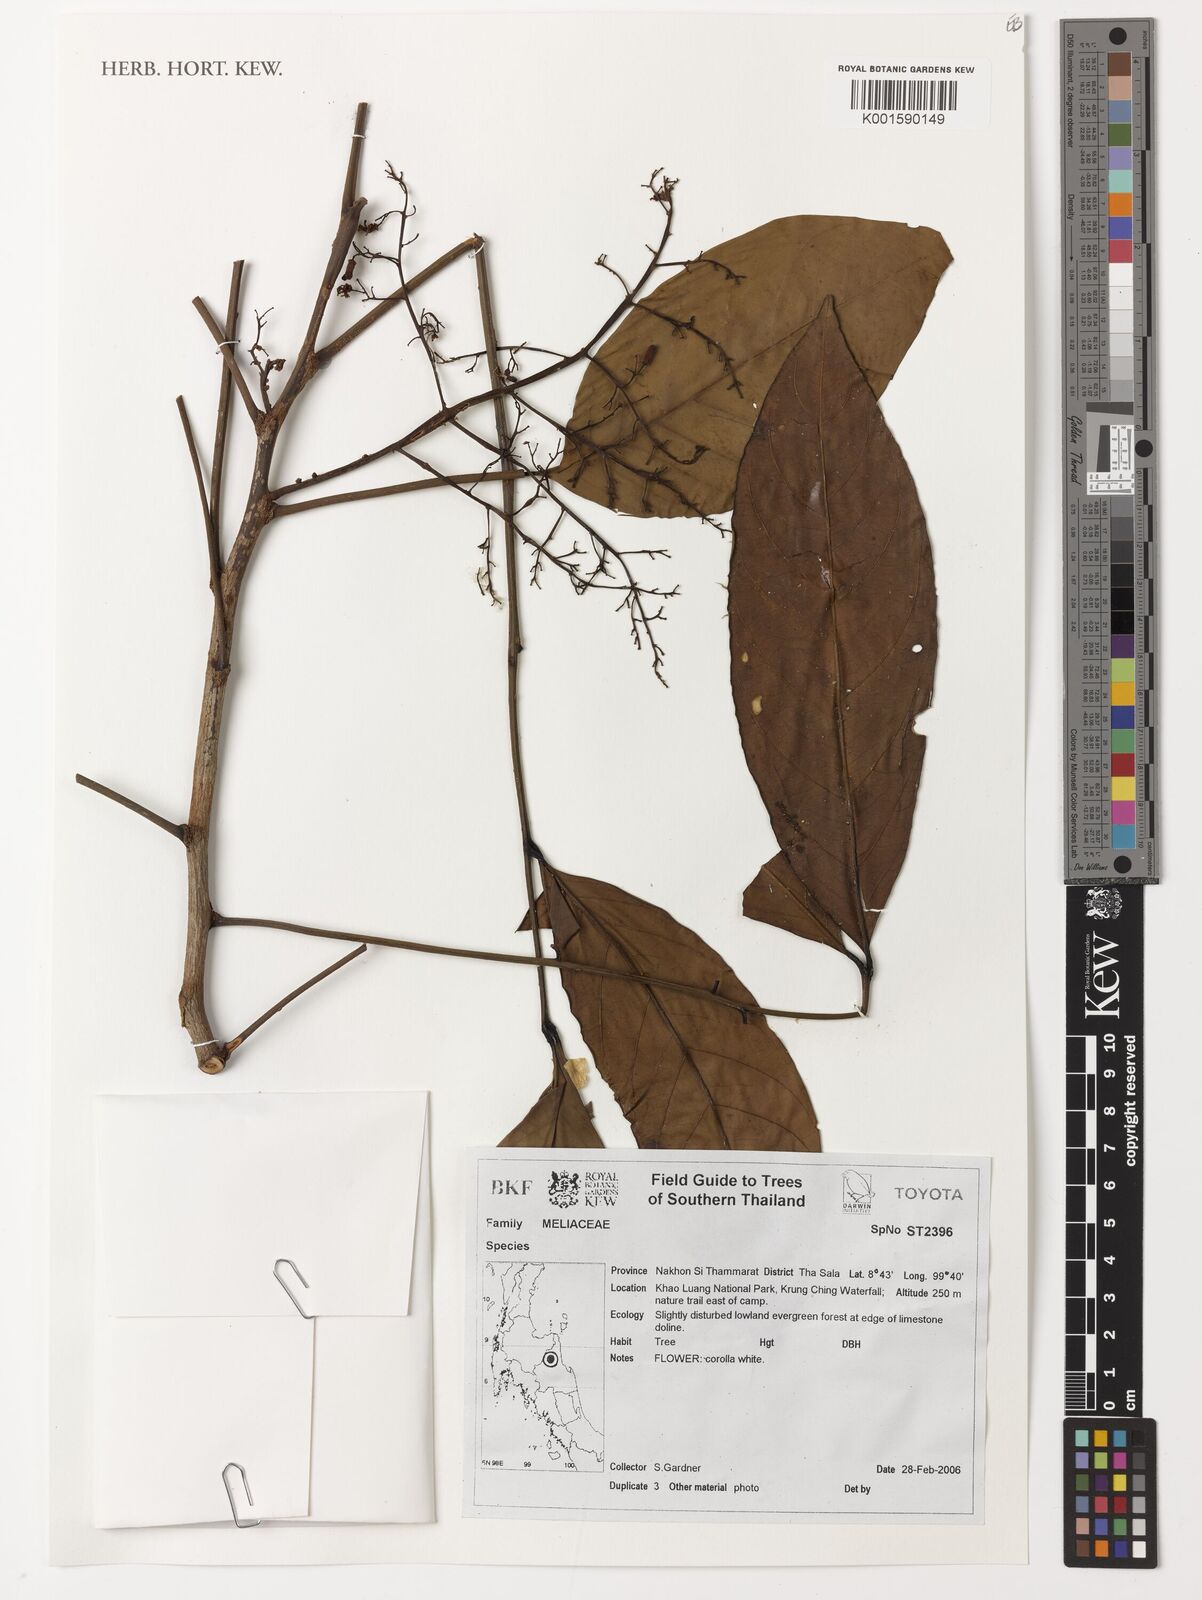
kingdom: Plantae
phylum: Tracheophyta
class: Magnoliopsida
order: Sapindales
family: Meliaceae
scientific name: Meliaceae
